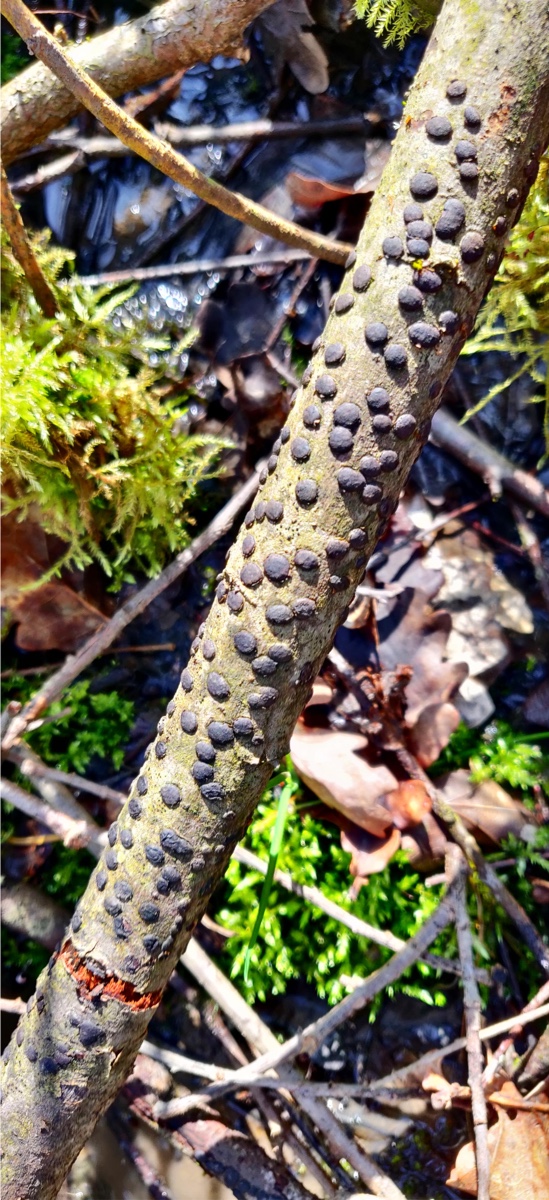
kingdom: Fungi
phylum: Ascomycota
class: Sordariomycetes
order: Xylariales
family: Diatrypaceae
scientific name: Diatrypaceae
